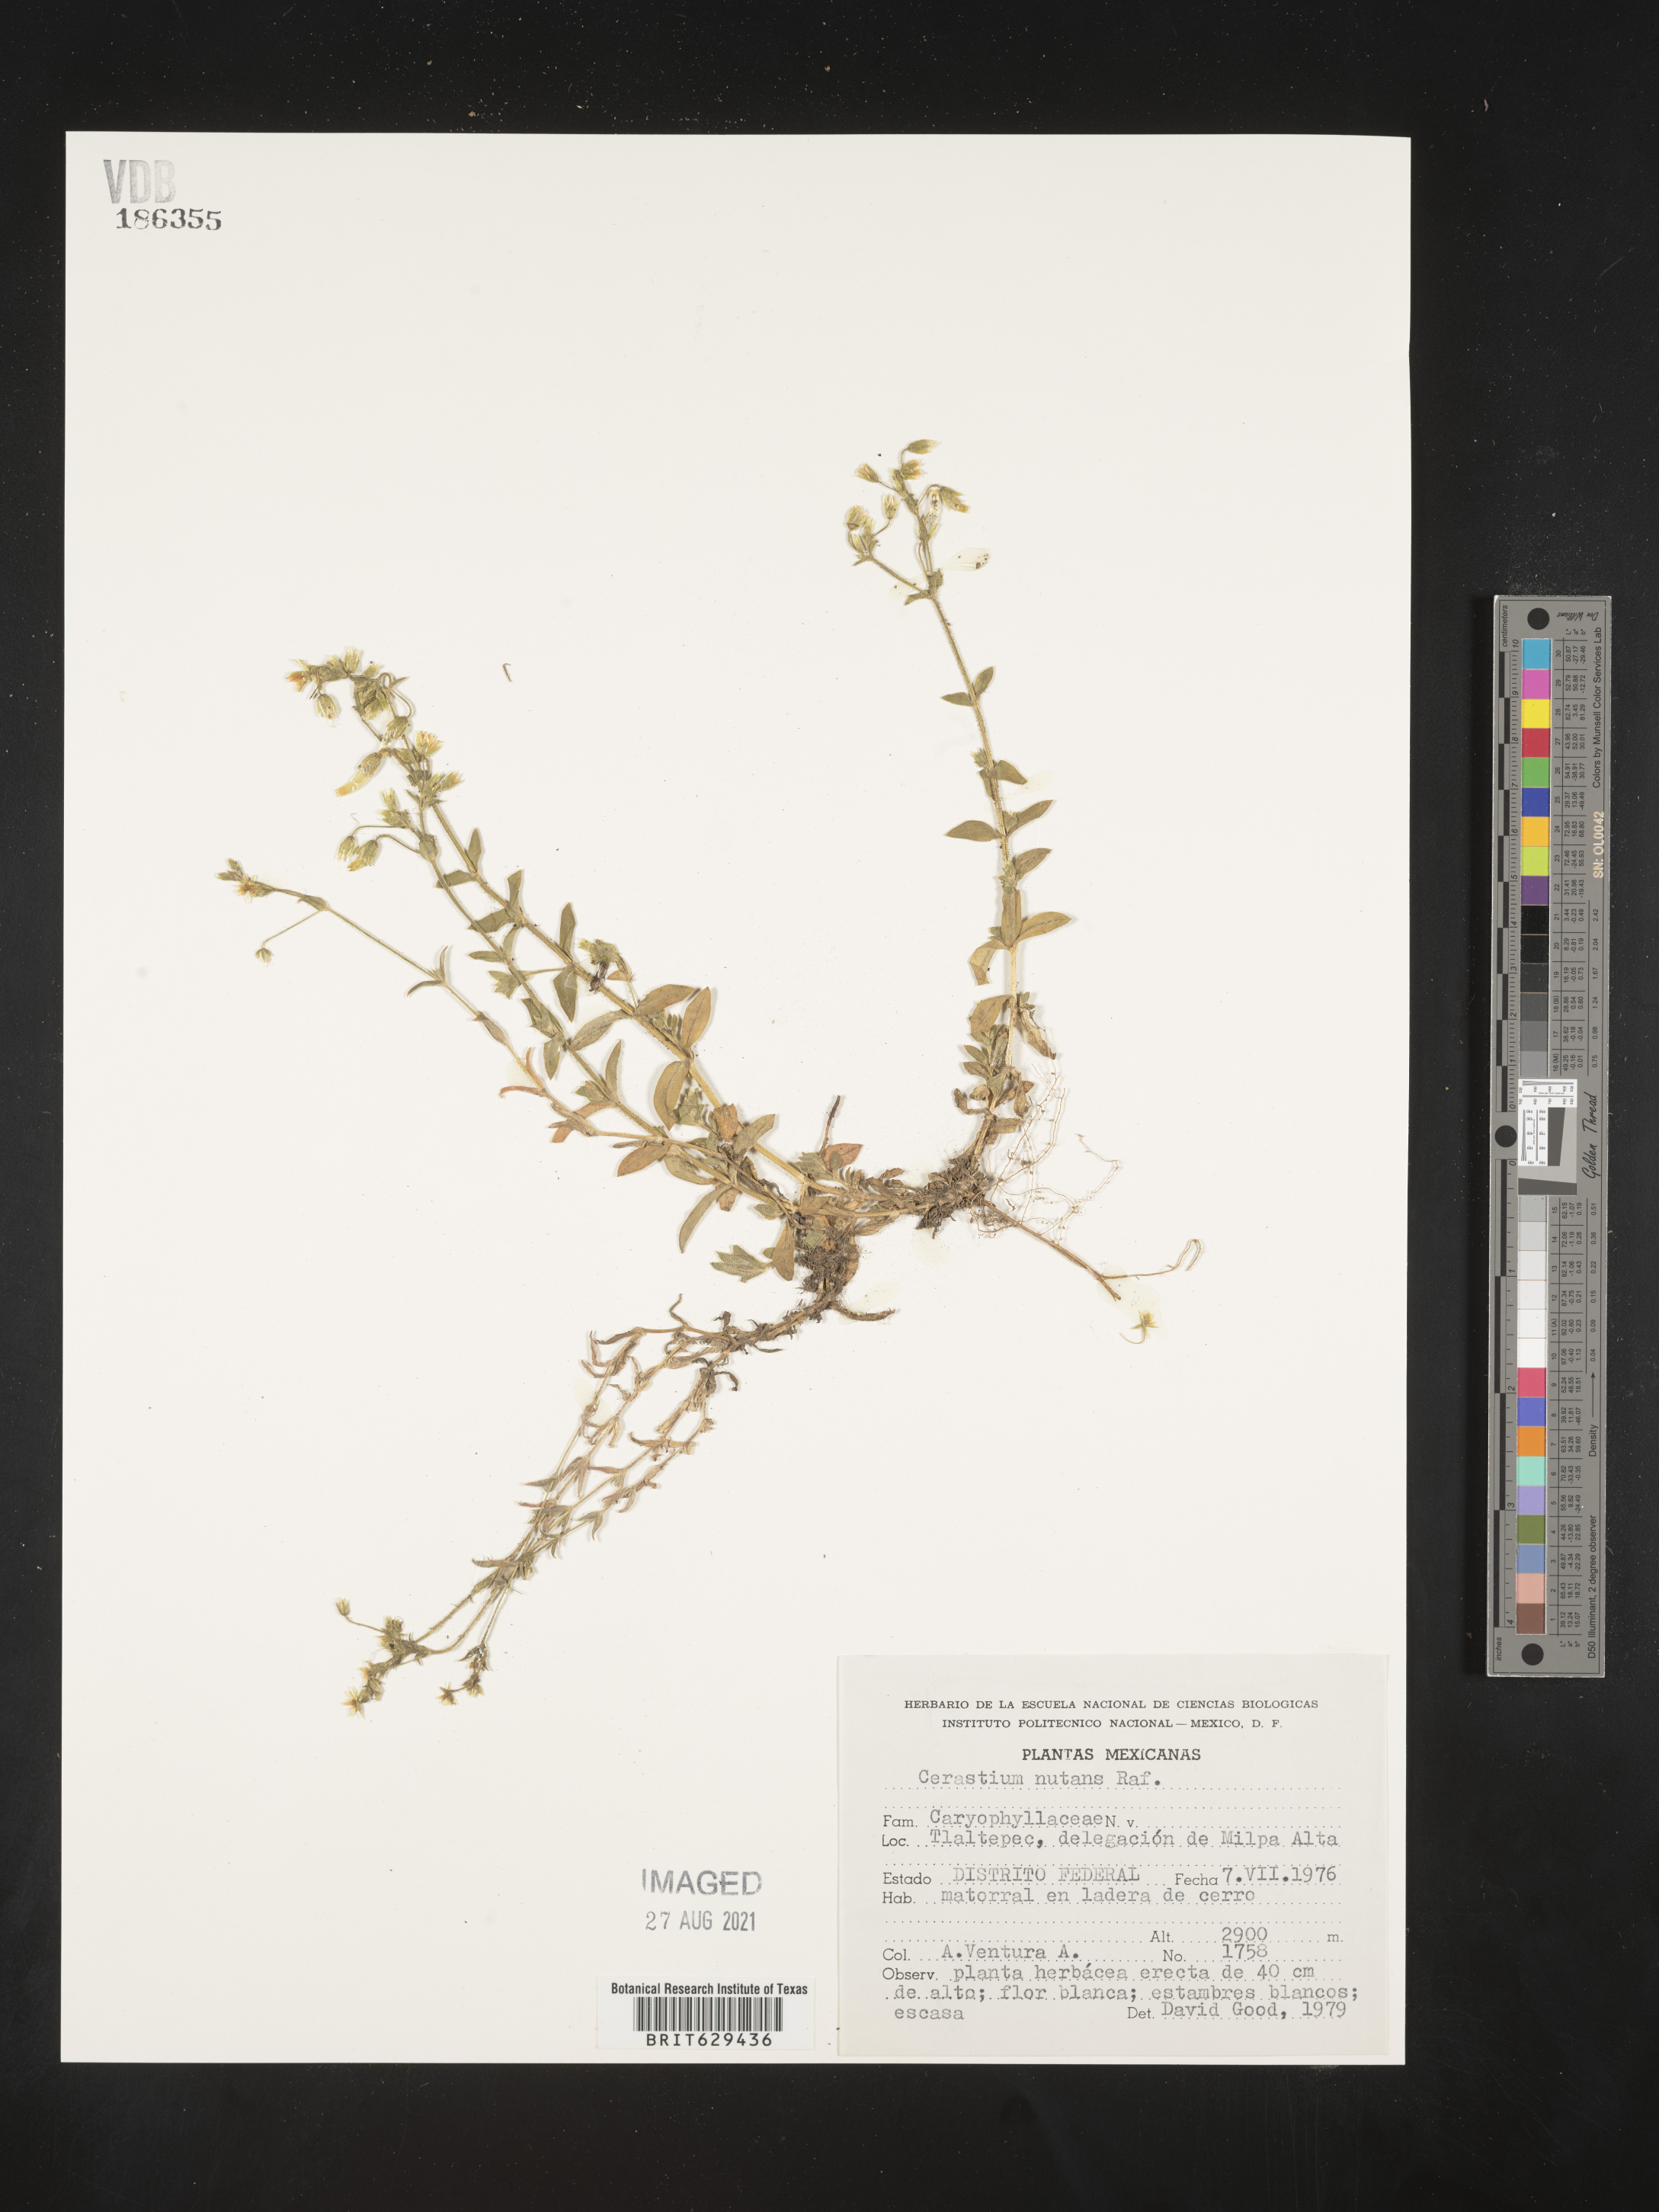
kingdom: Plantae
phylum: Tracheophyta
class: Magnoliopsida
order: Caryophyllales
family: Caryophyllaceae
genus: Cerastium
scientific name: Cerastium
